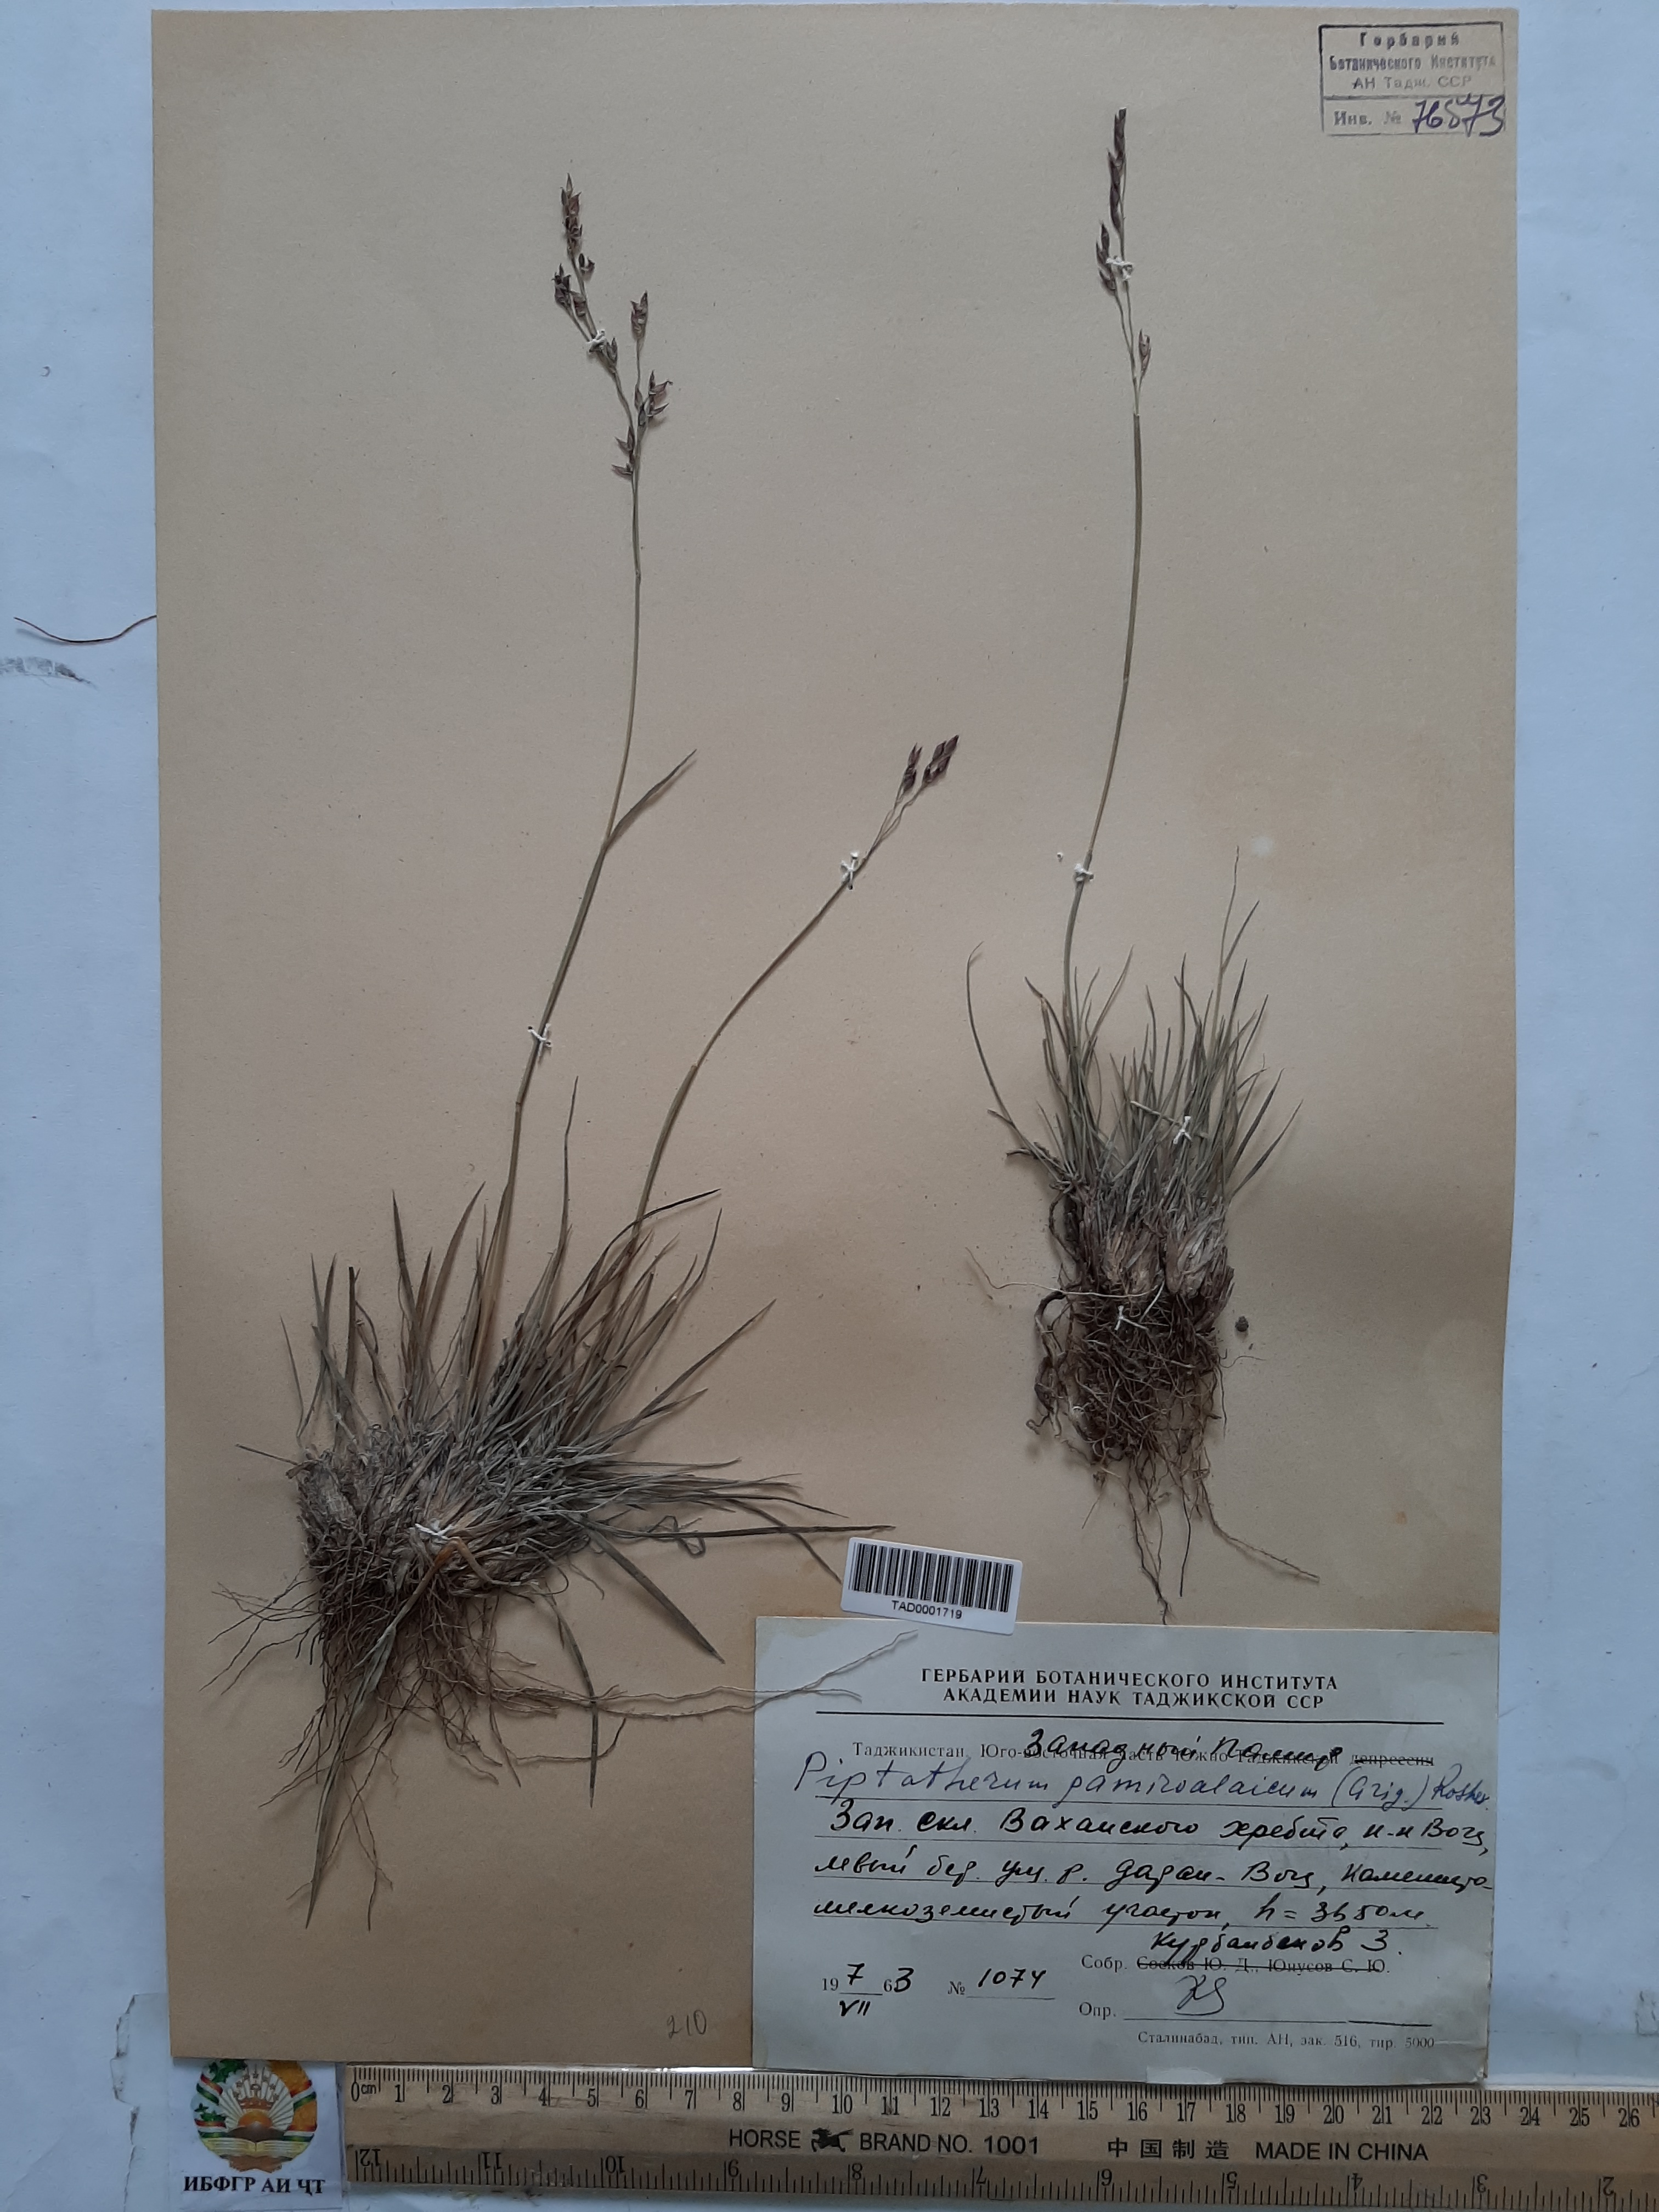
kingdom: Plantae
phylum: Tracheophyta
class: Liliopsida
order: Poales
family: Poaceae
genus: Piptatherum
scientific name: Piptatherum pamiralaicum
